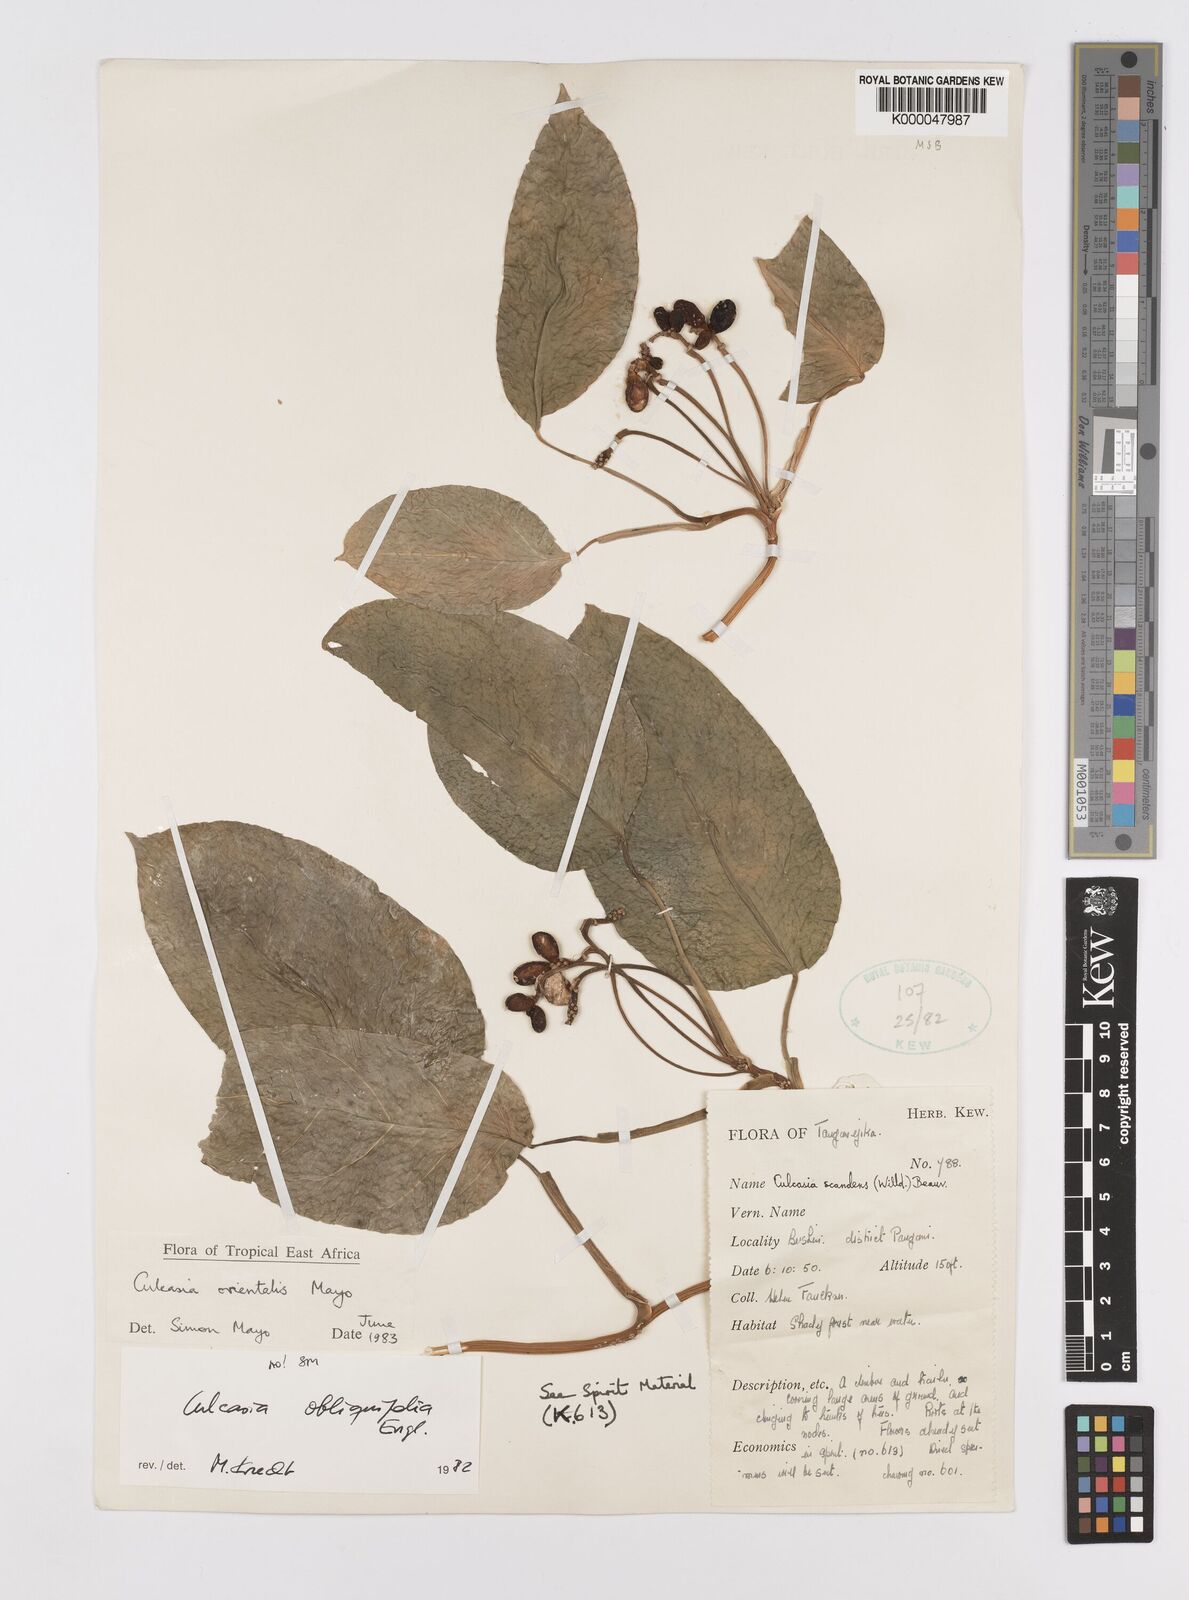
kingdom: Plantae
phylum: Tracheophyta
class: Liliopsida
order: Alismatales
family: Araceae
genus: Culcasia
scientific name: Culcasia orientalis
